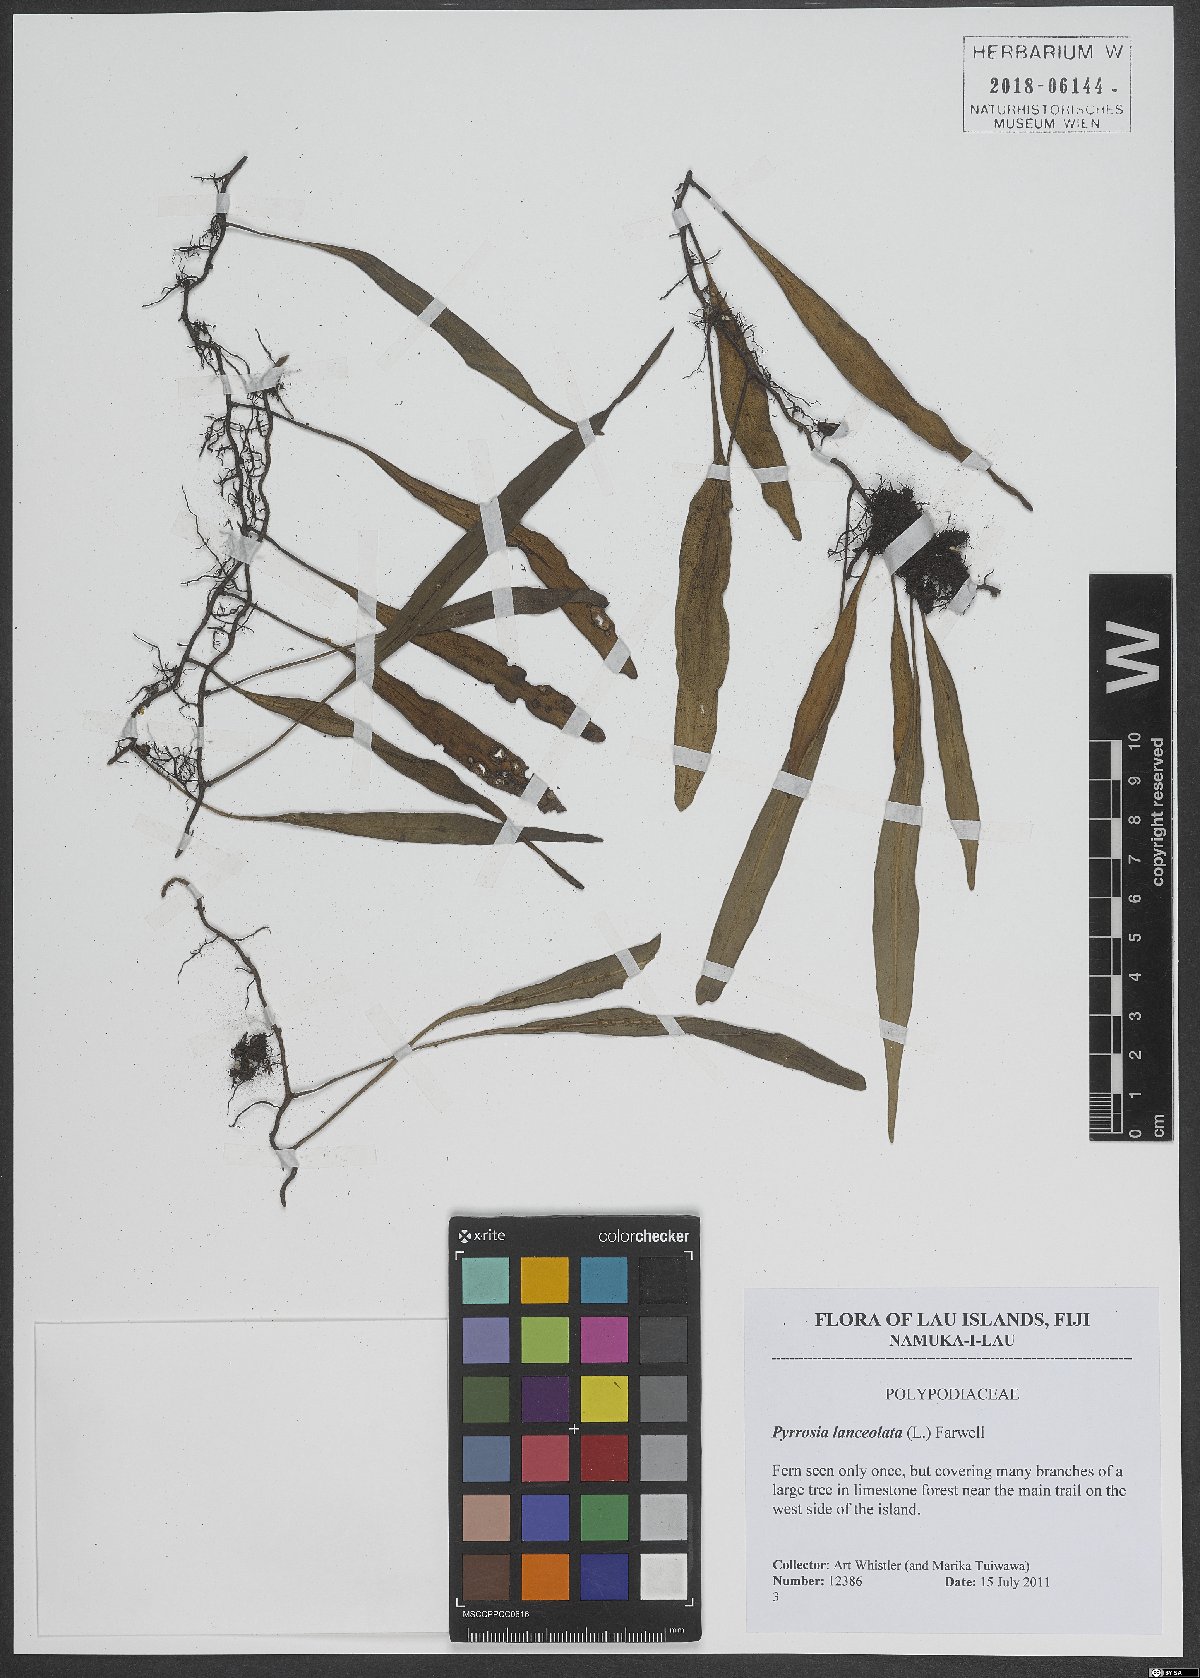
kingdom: Plantae
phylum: Tracheophyta
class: Polypodiopsida
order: Polypodiales
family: Polypodiaceae
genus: Pyrrosia
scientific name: Pyrrosia lanceolata
